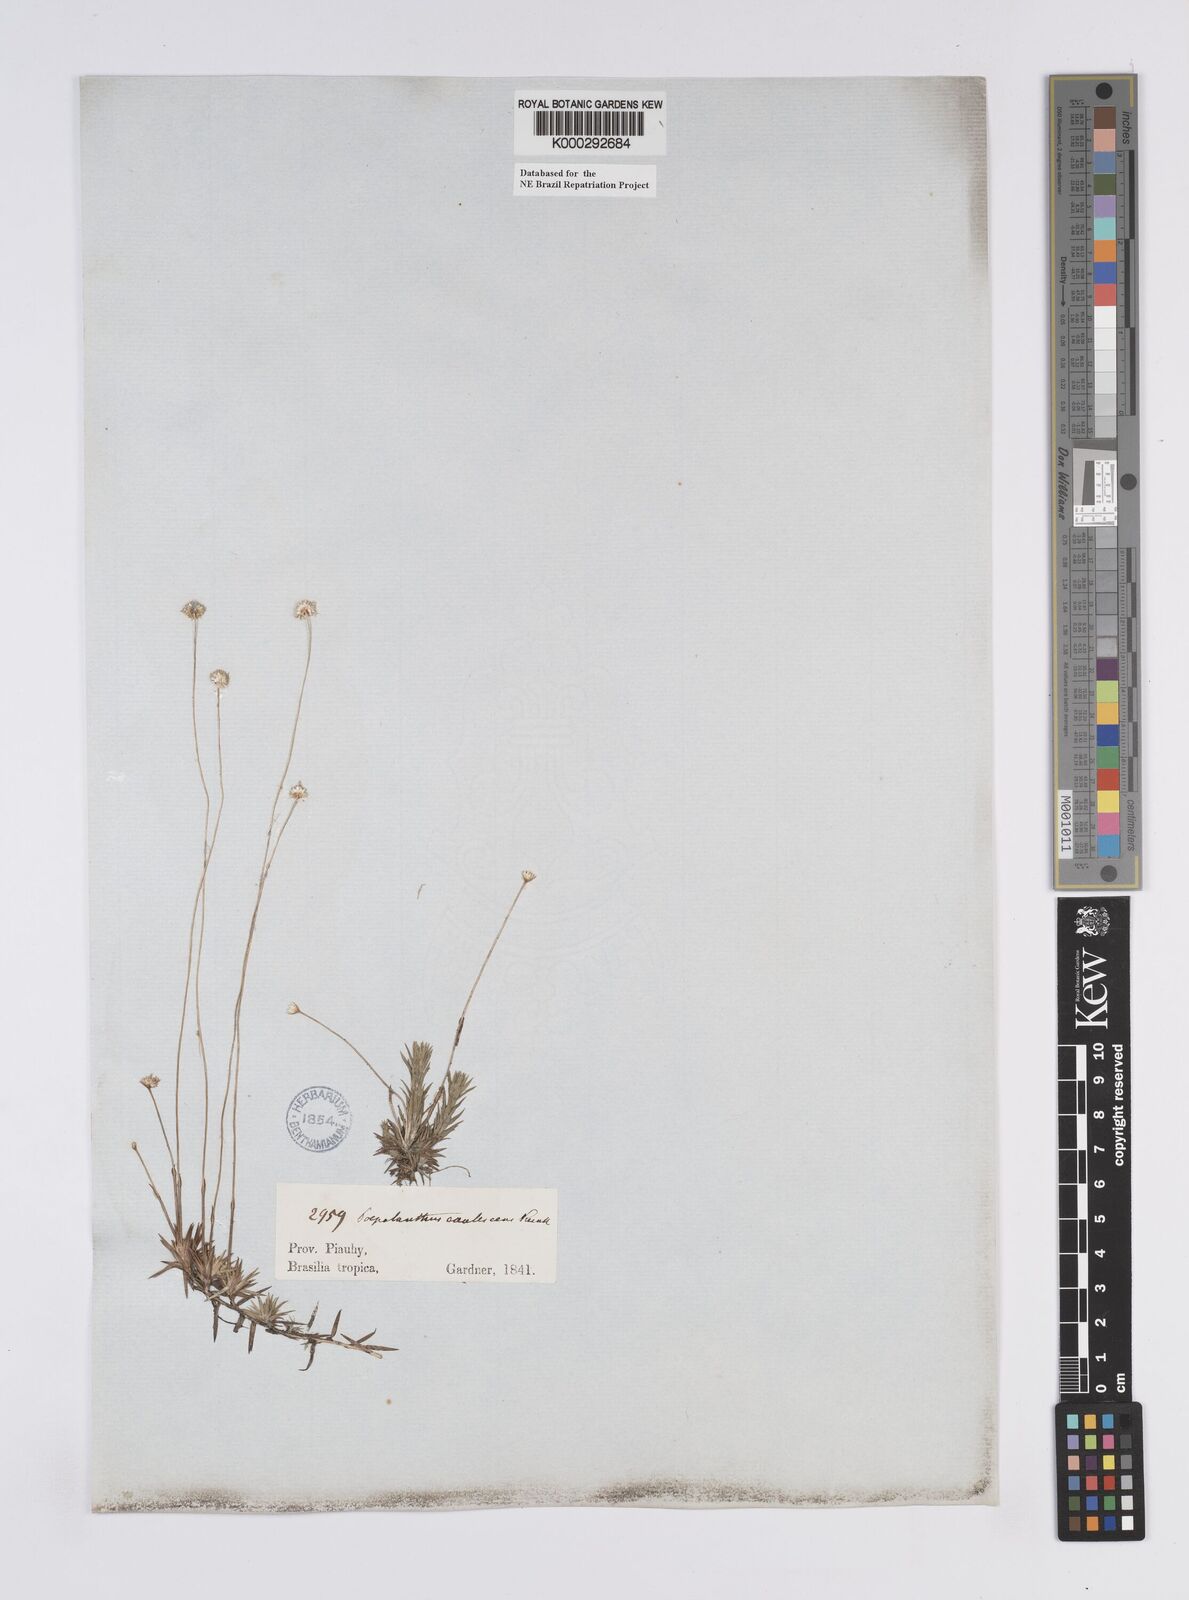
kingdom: Plantae
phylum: Tracheophyta
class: Liliopsida
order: Poales
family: Eriocaulaceae
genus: Syngonanthus
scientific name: Syngonanthus caulescens
